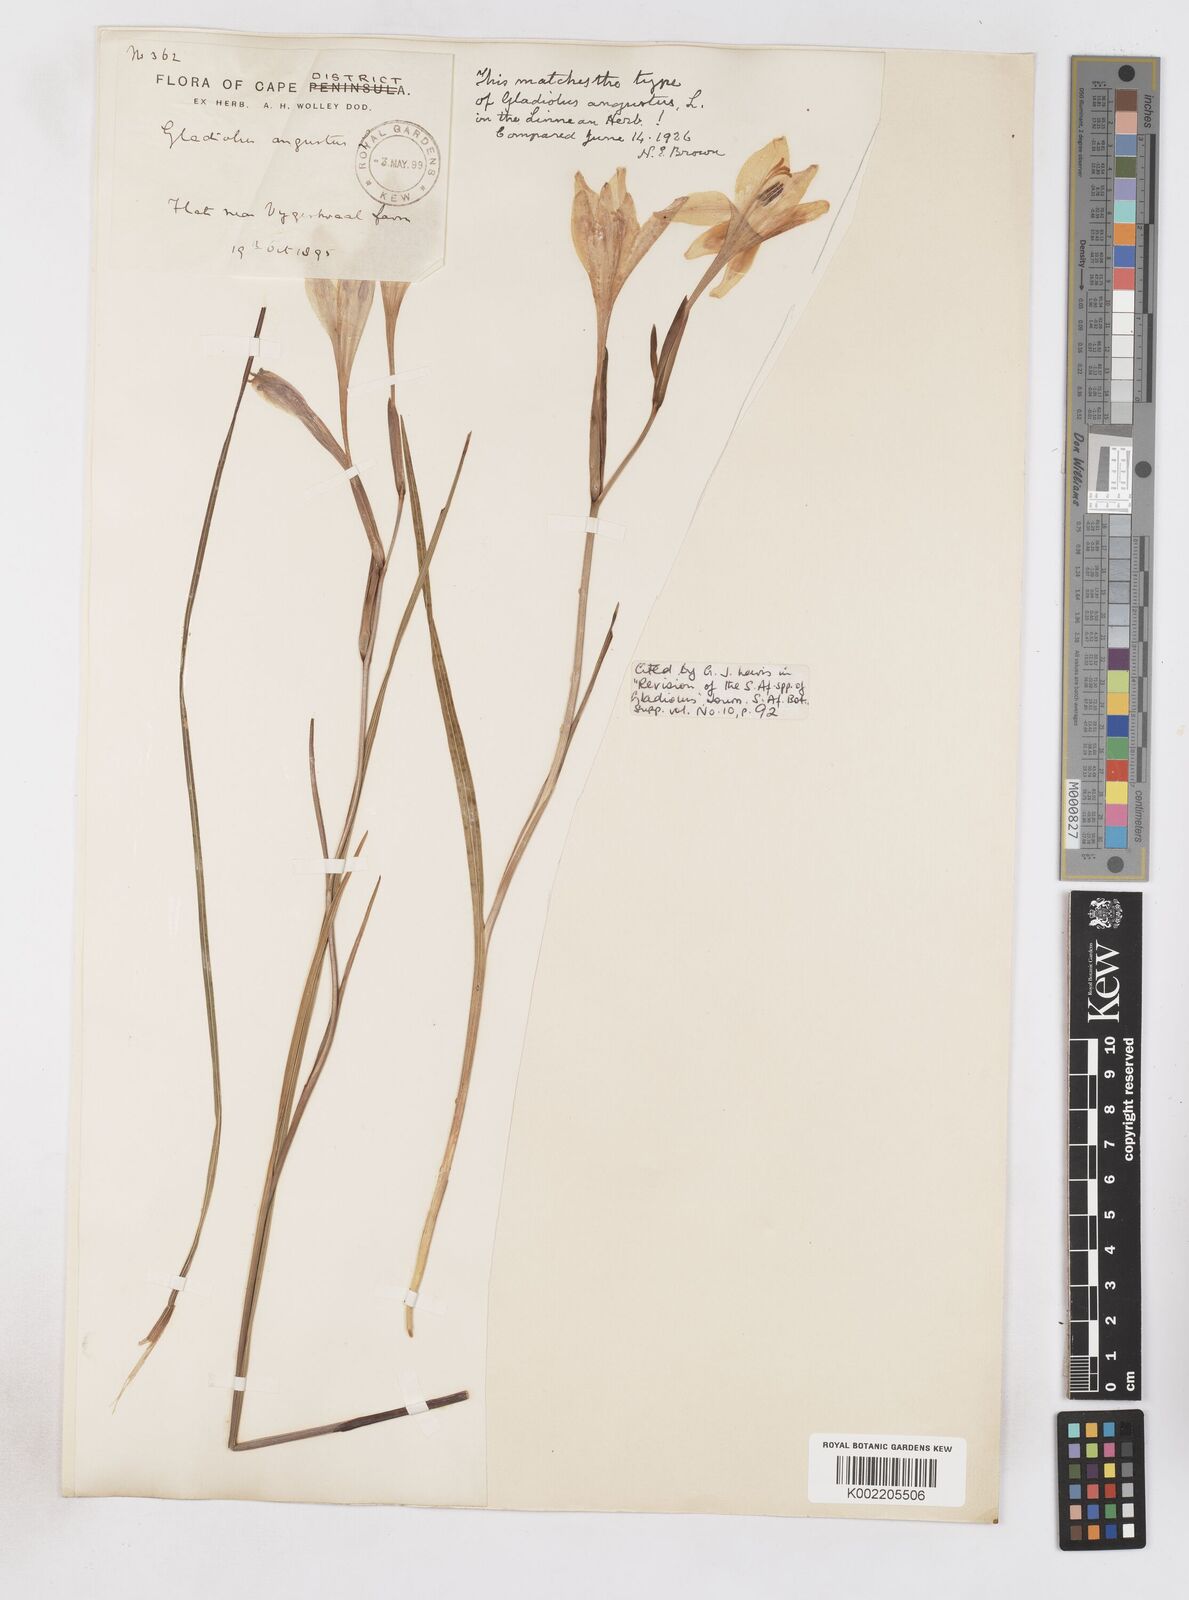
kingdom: Plantae
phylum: Tracheophyta
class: Liliopsida
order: Asparagales
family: Iridaceae
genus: Gladiolus
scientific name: Gladiolus angustus
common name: Painted-lady
